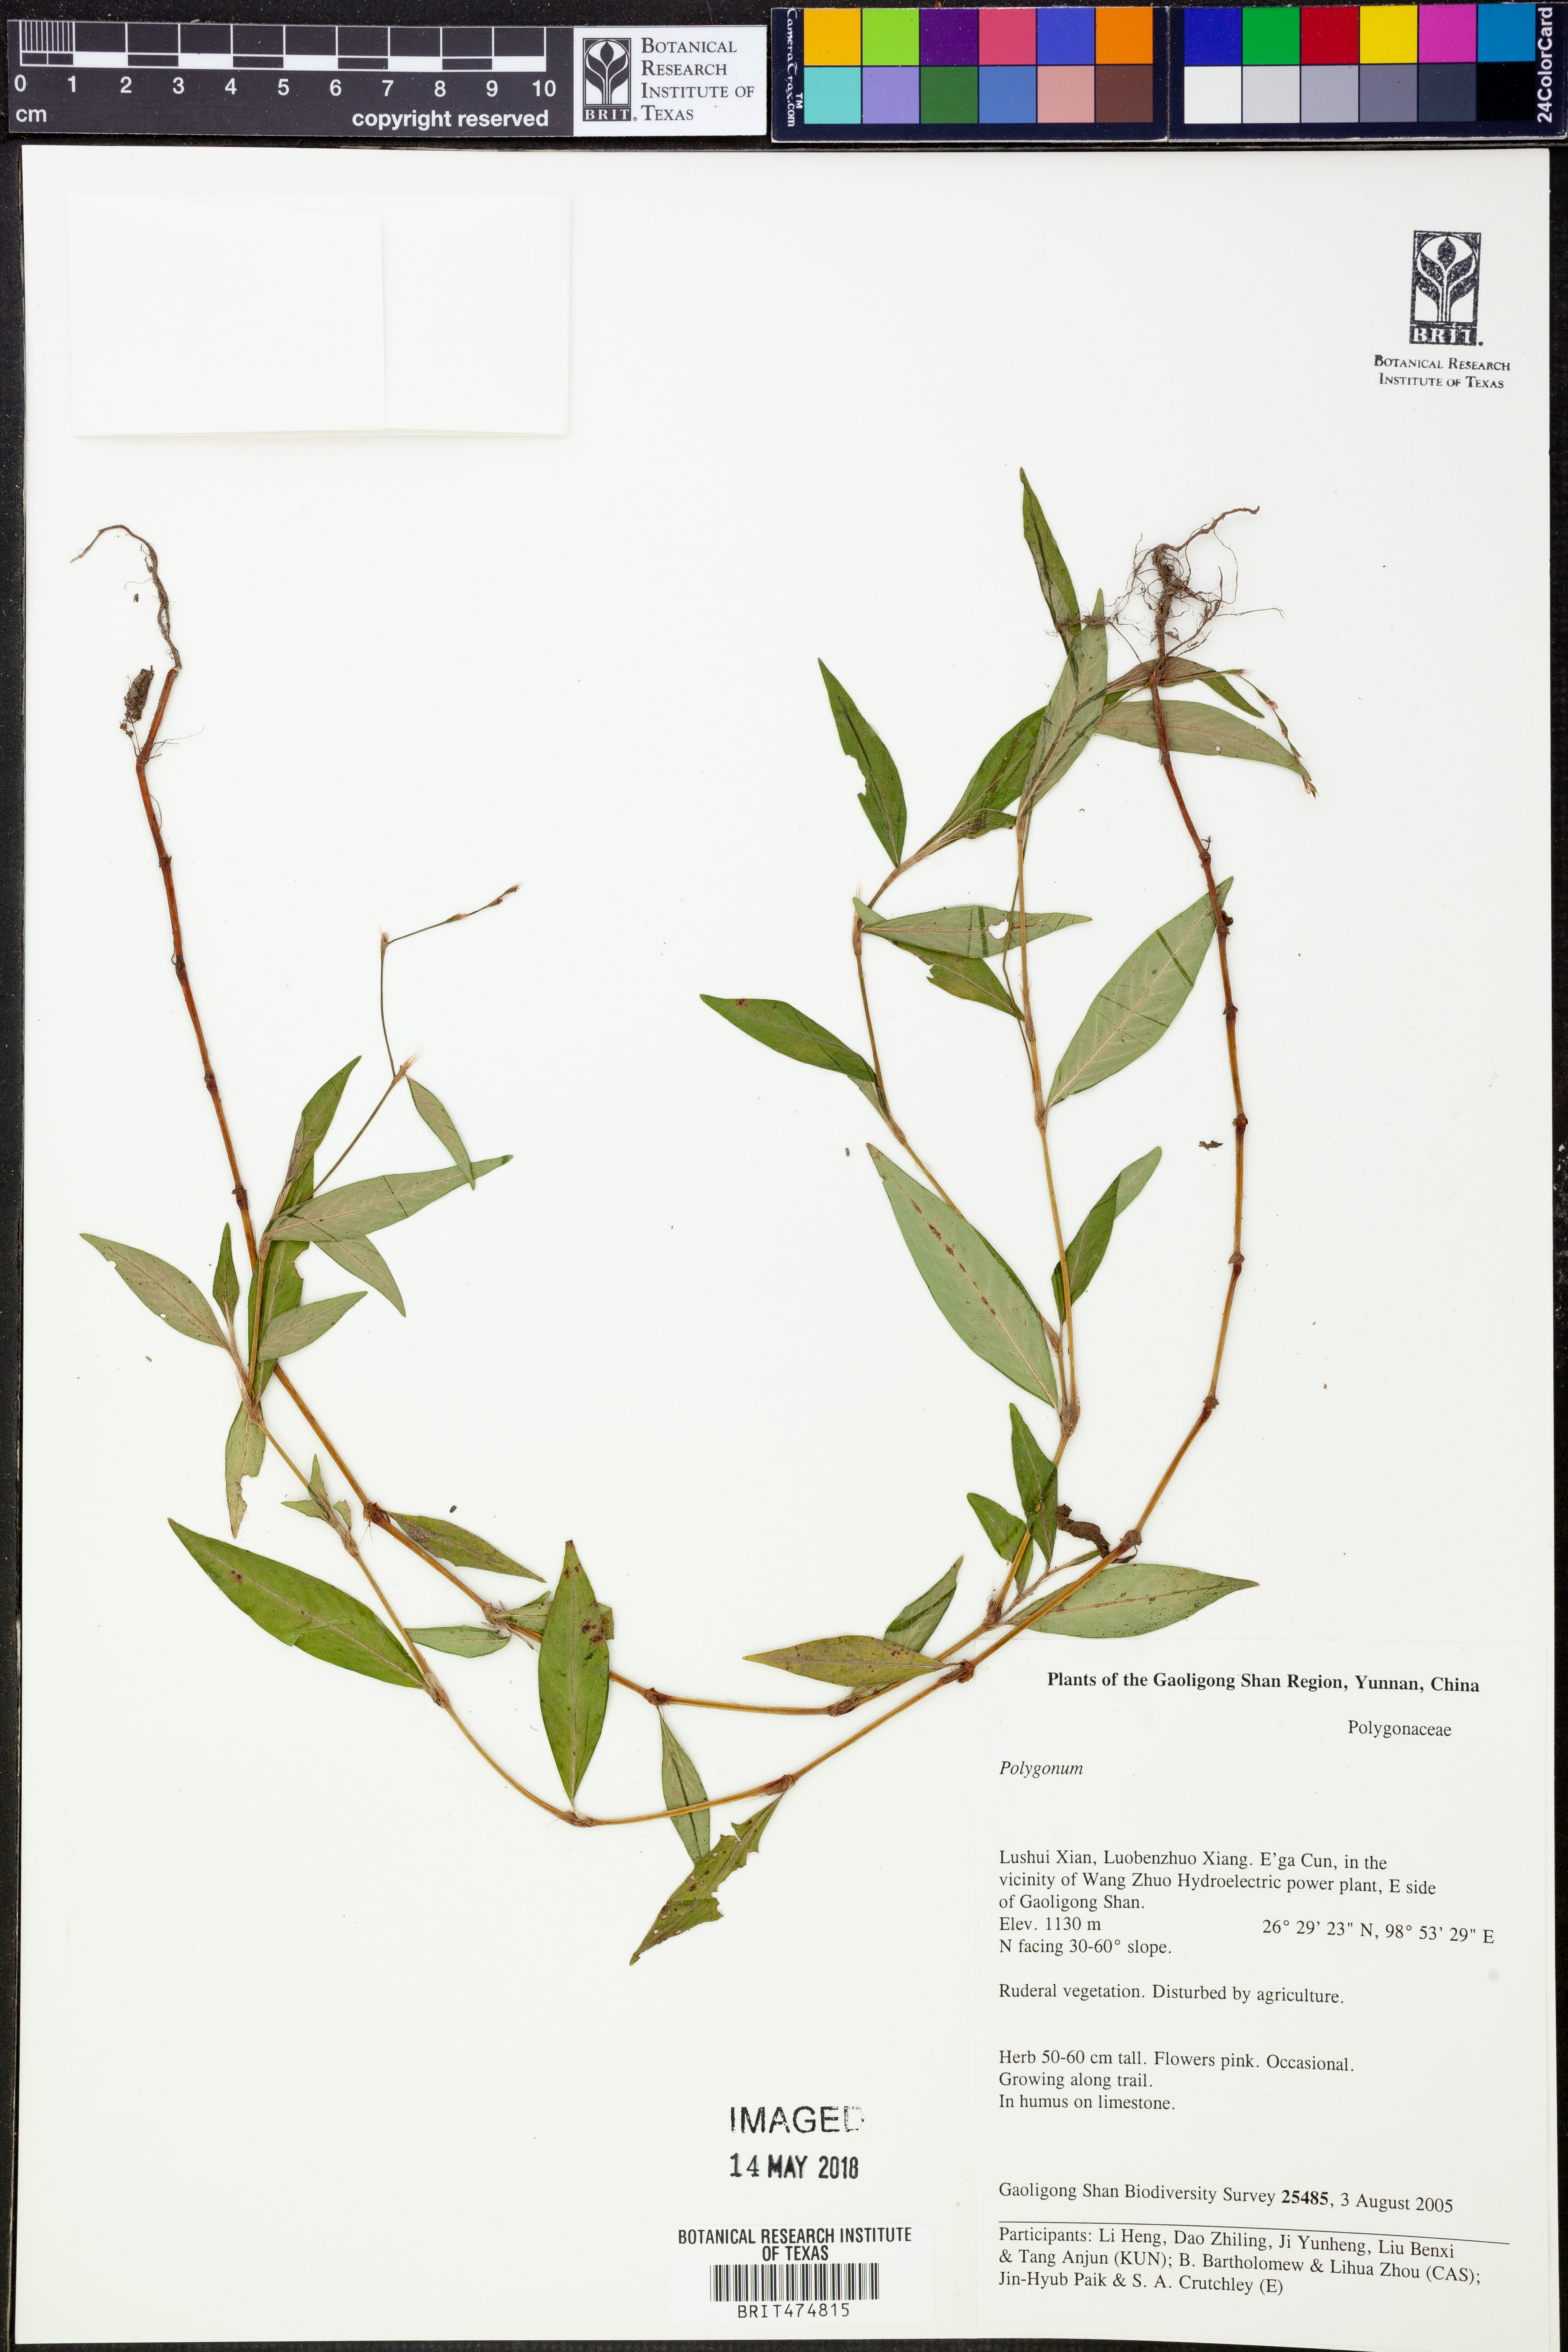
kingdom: Plantae
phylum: Tracheophyta
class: Magnoliopsida
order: Caryophyllales
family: Polygonaceae
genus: Polygonum
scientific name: Polygonum
